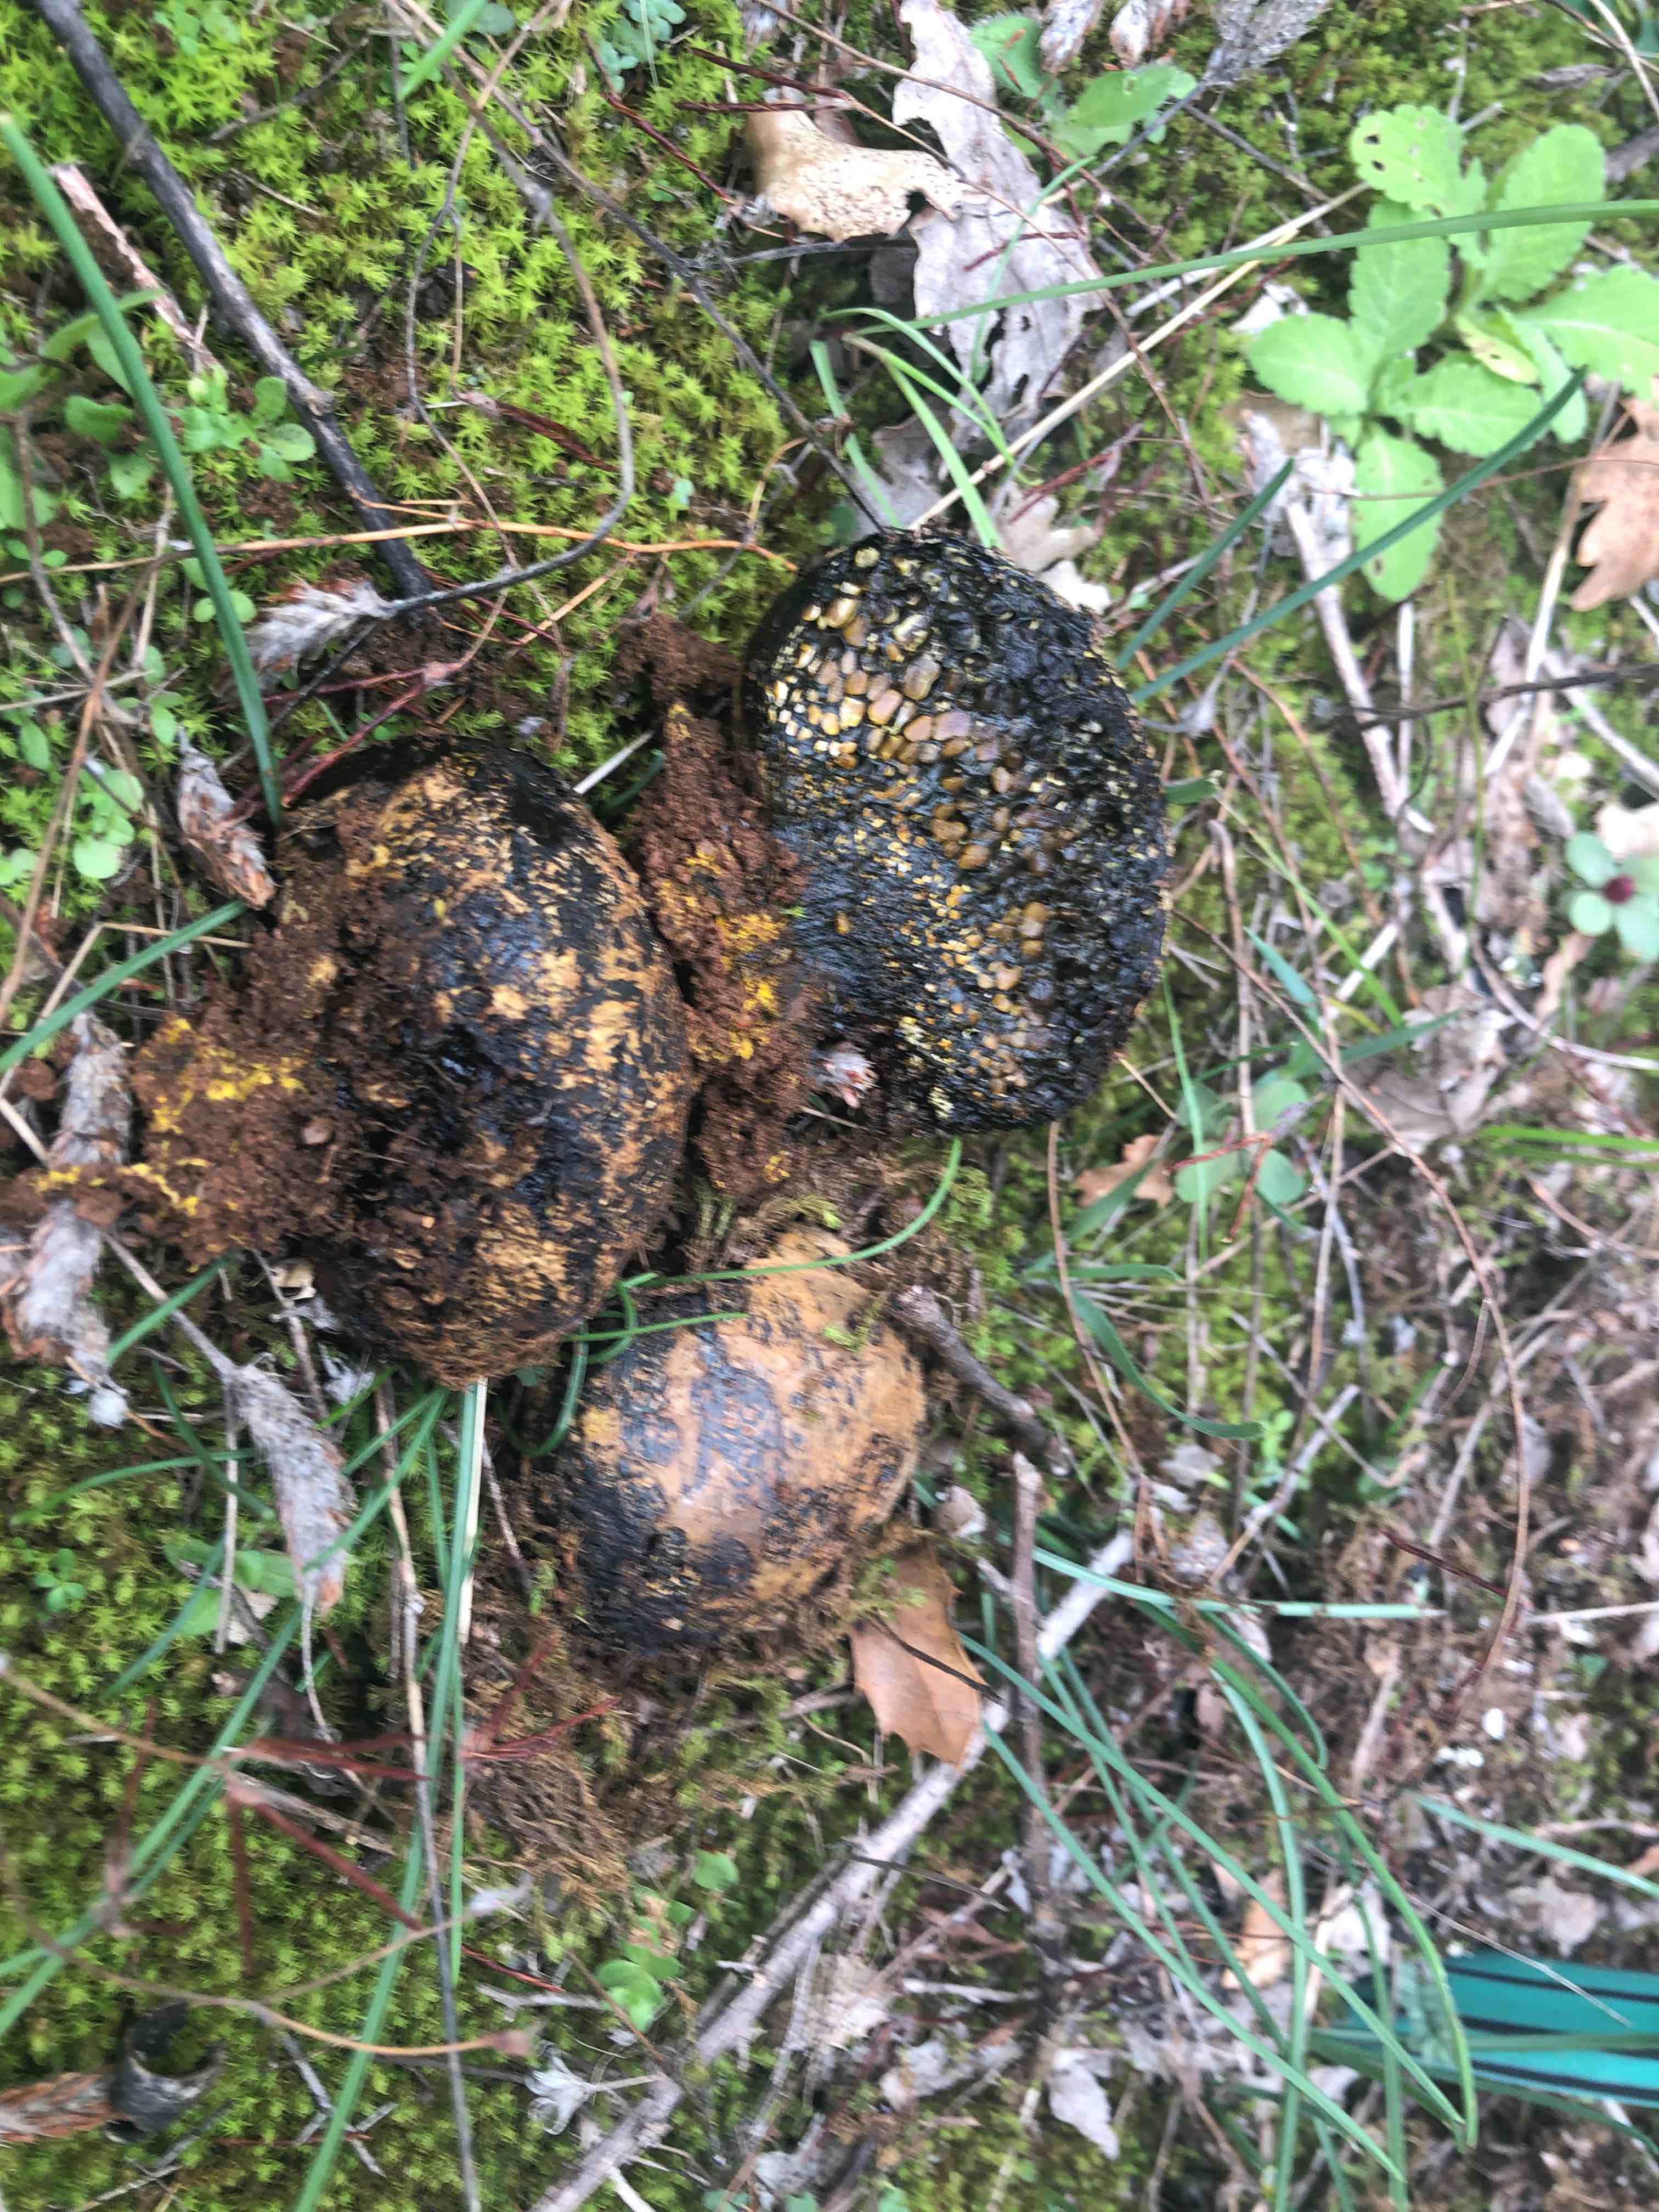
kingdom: Fungi
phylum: Basidiomycota
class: Agaricomycetes
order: Boletales
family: Sclerodermataceae
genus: Pisolithus
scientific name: Pisolithus
